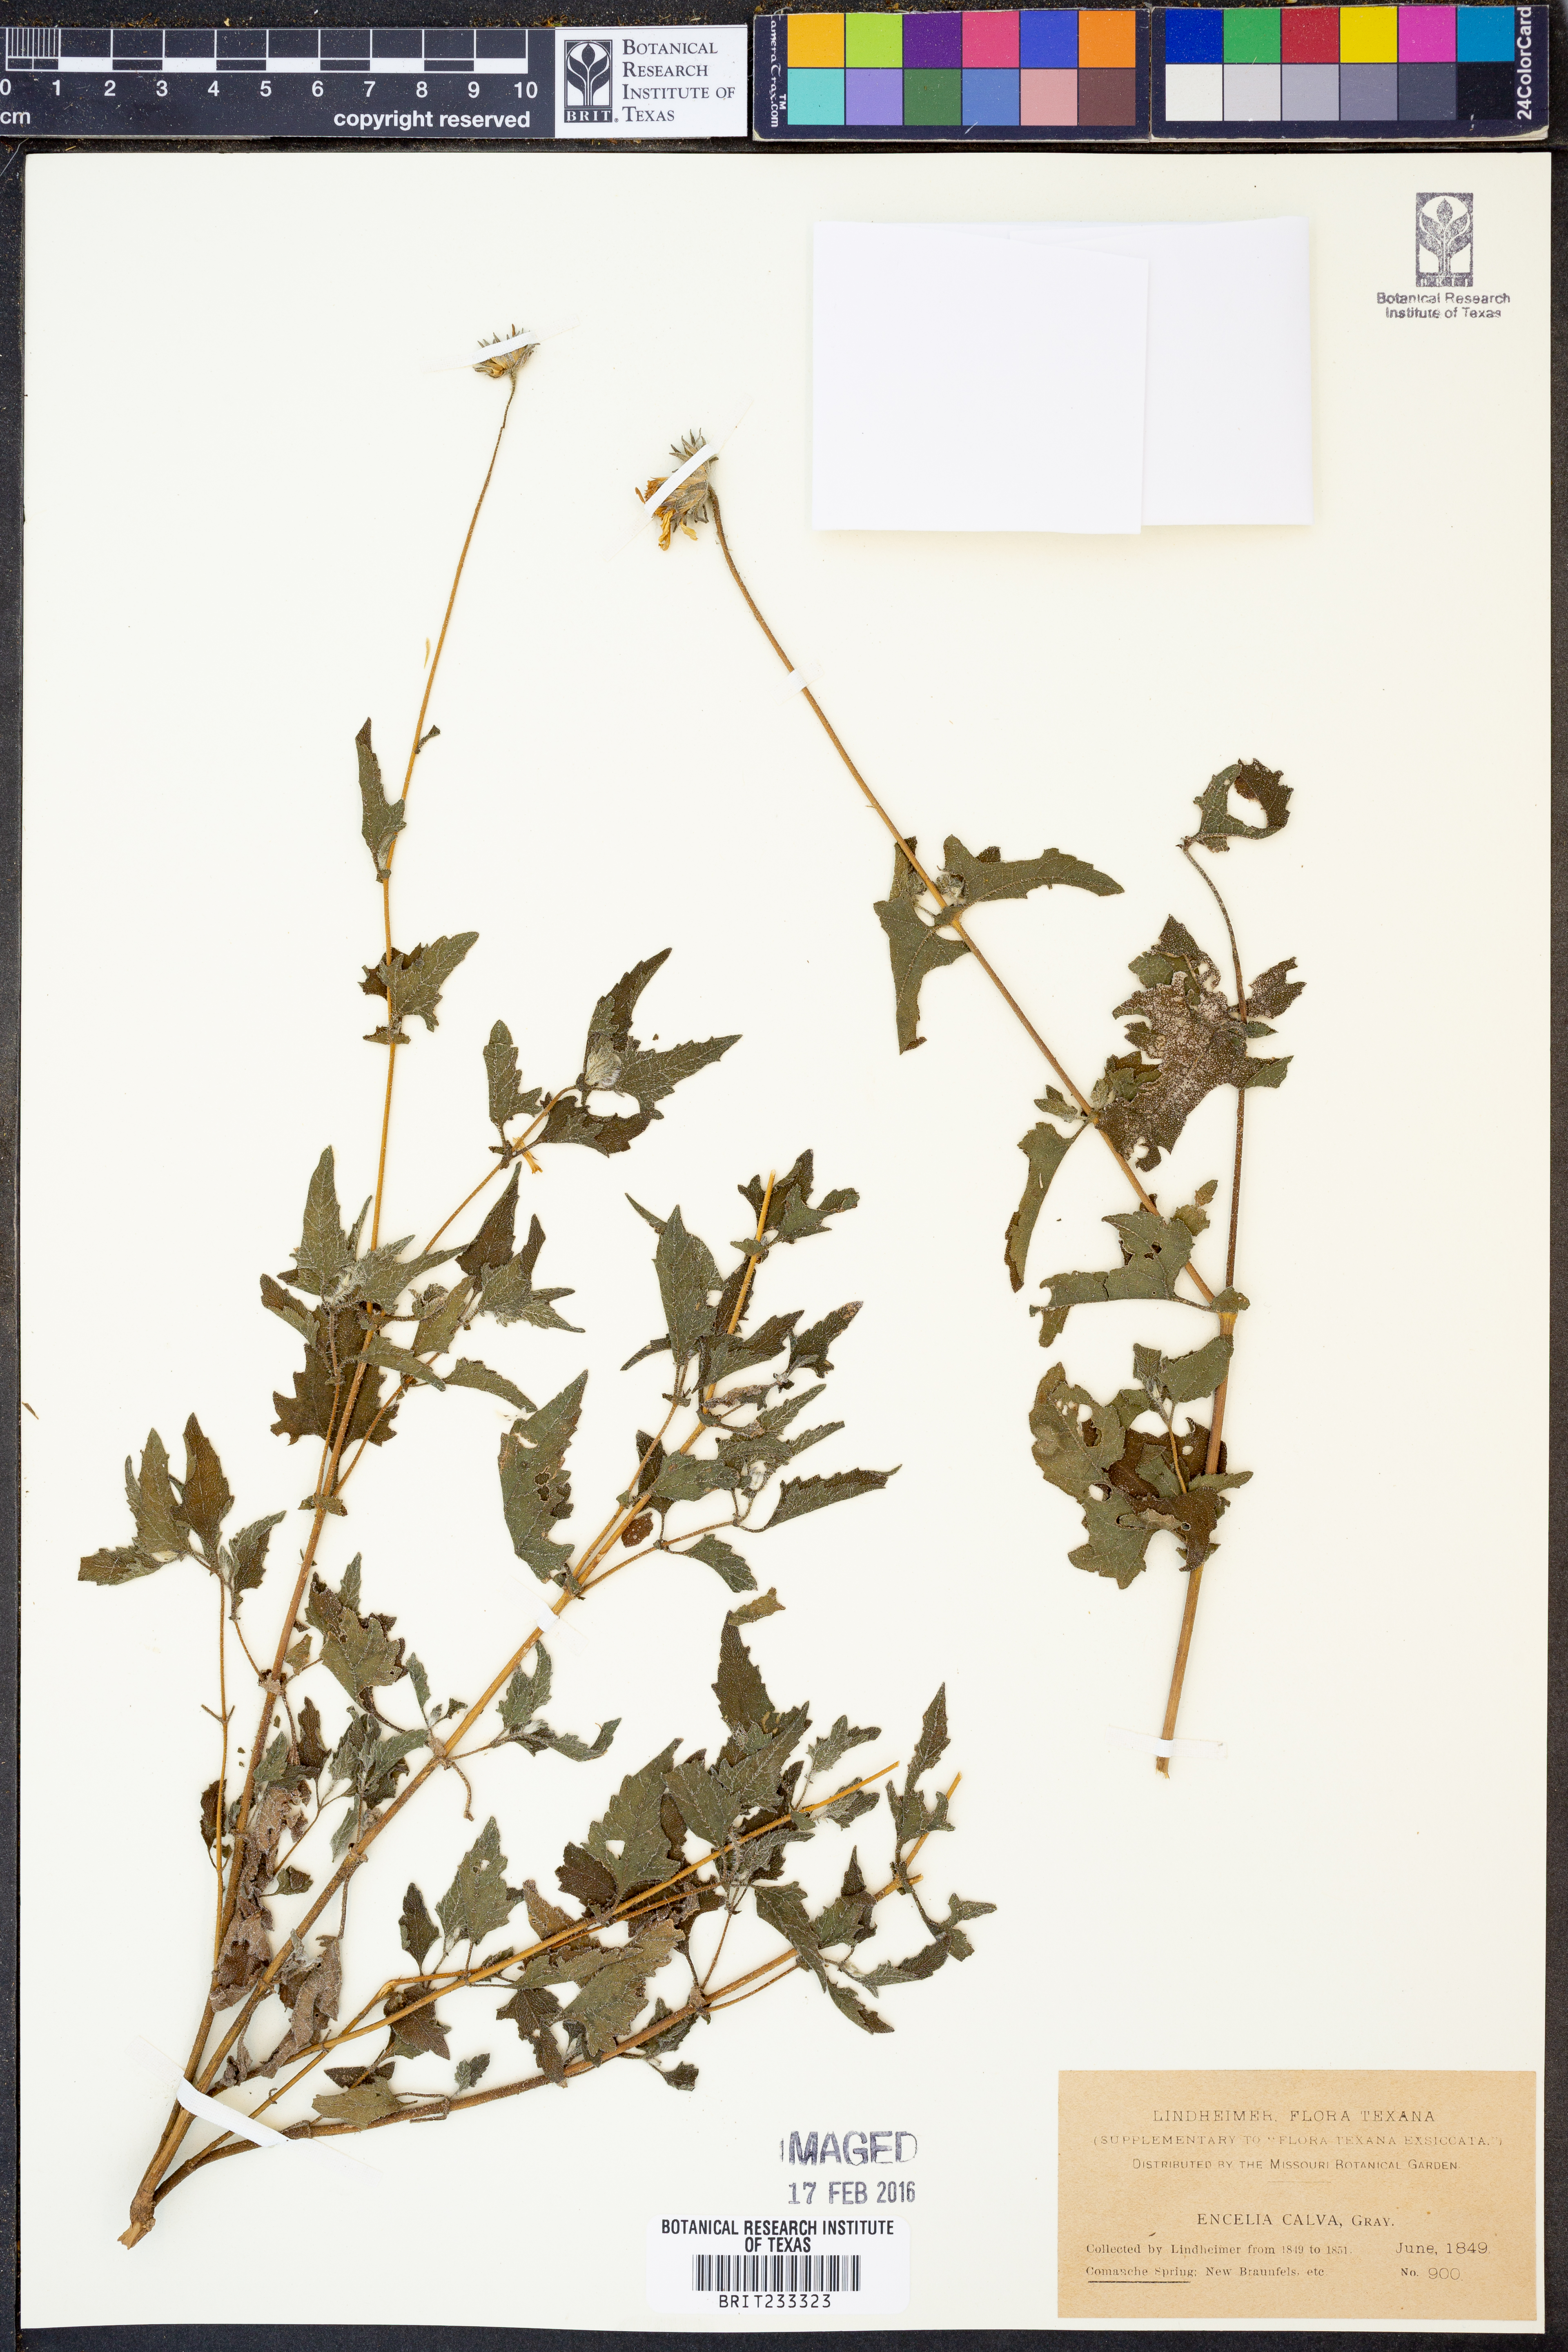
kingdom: Plantae
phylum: Tracheophyta
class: Magnoliopsida
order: Asterales
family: Asteraceae
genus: Simsia
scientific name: Simsia calva
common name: Awnless bush-sunflower
